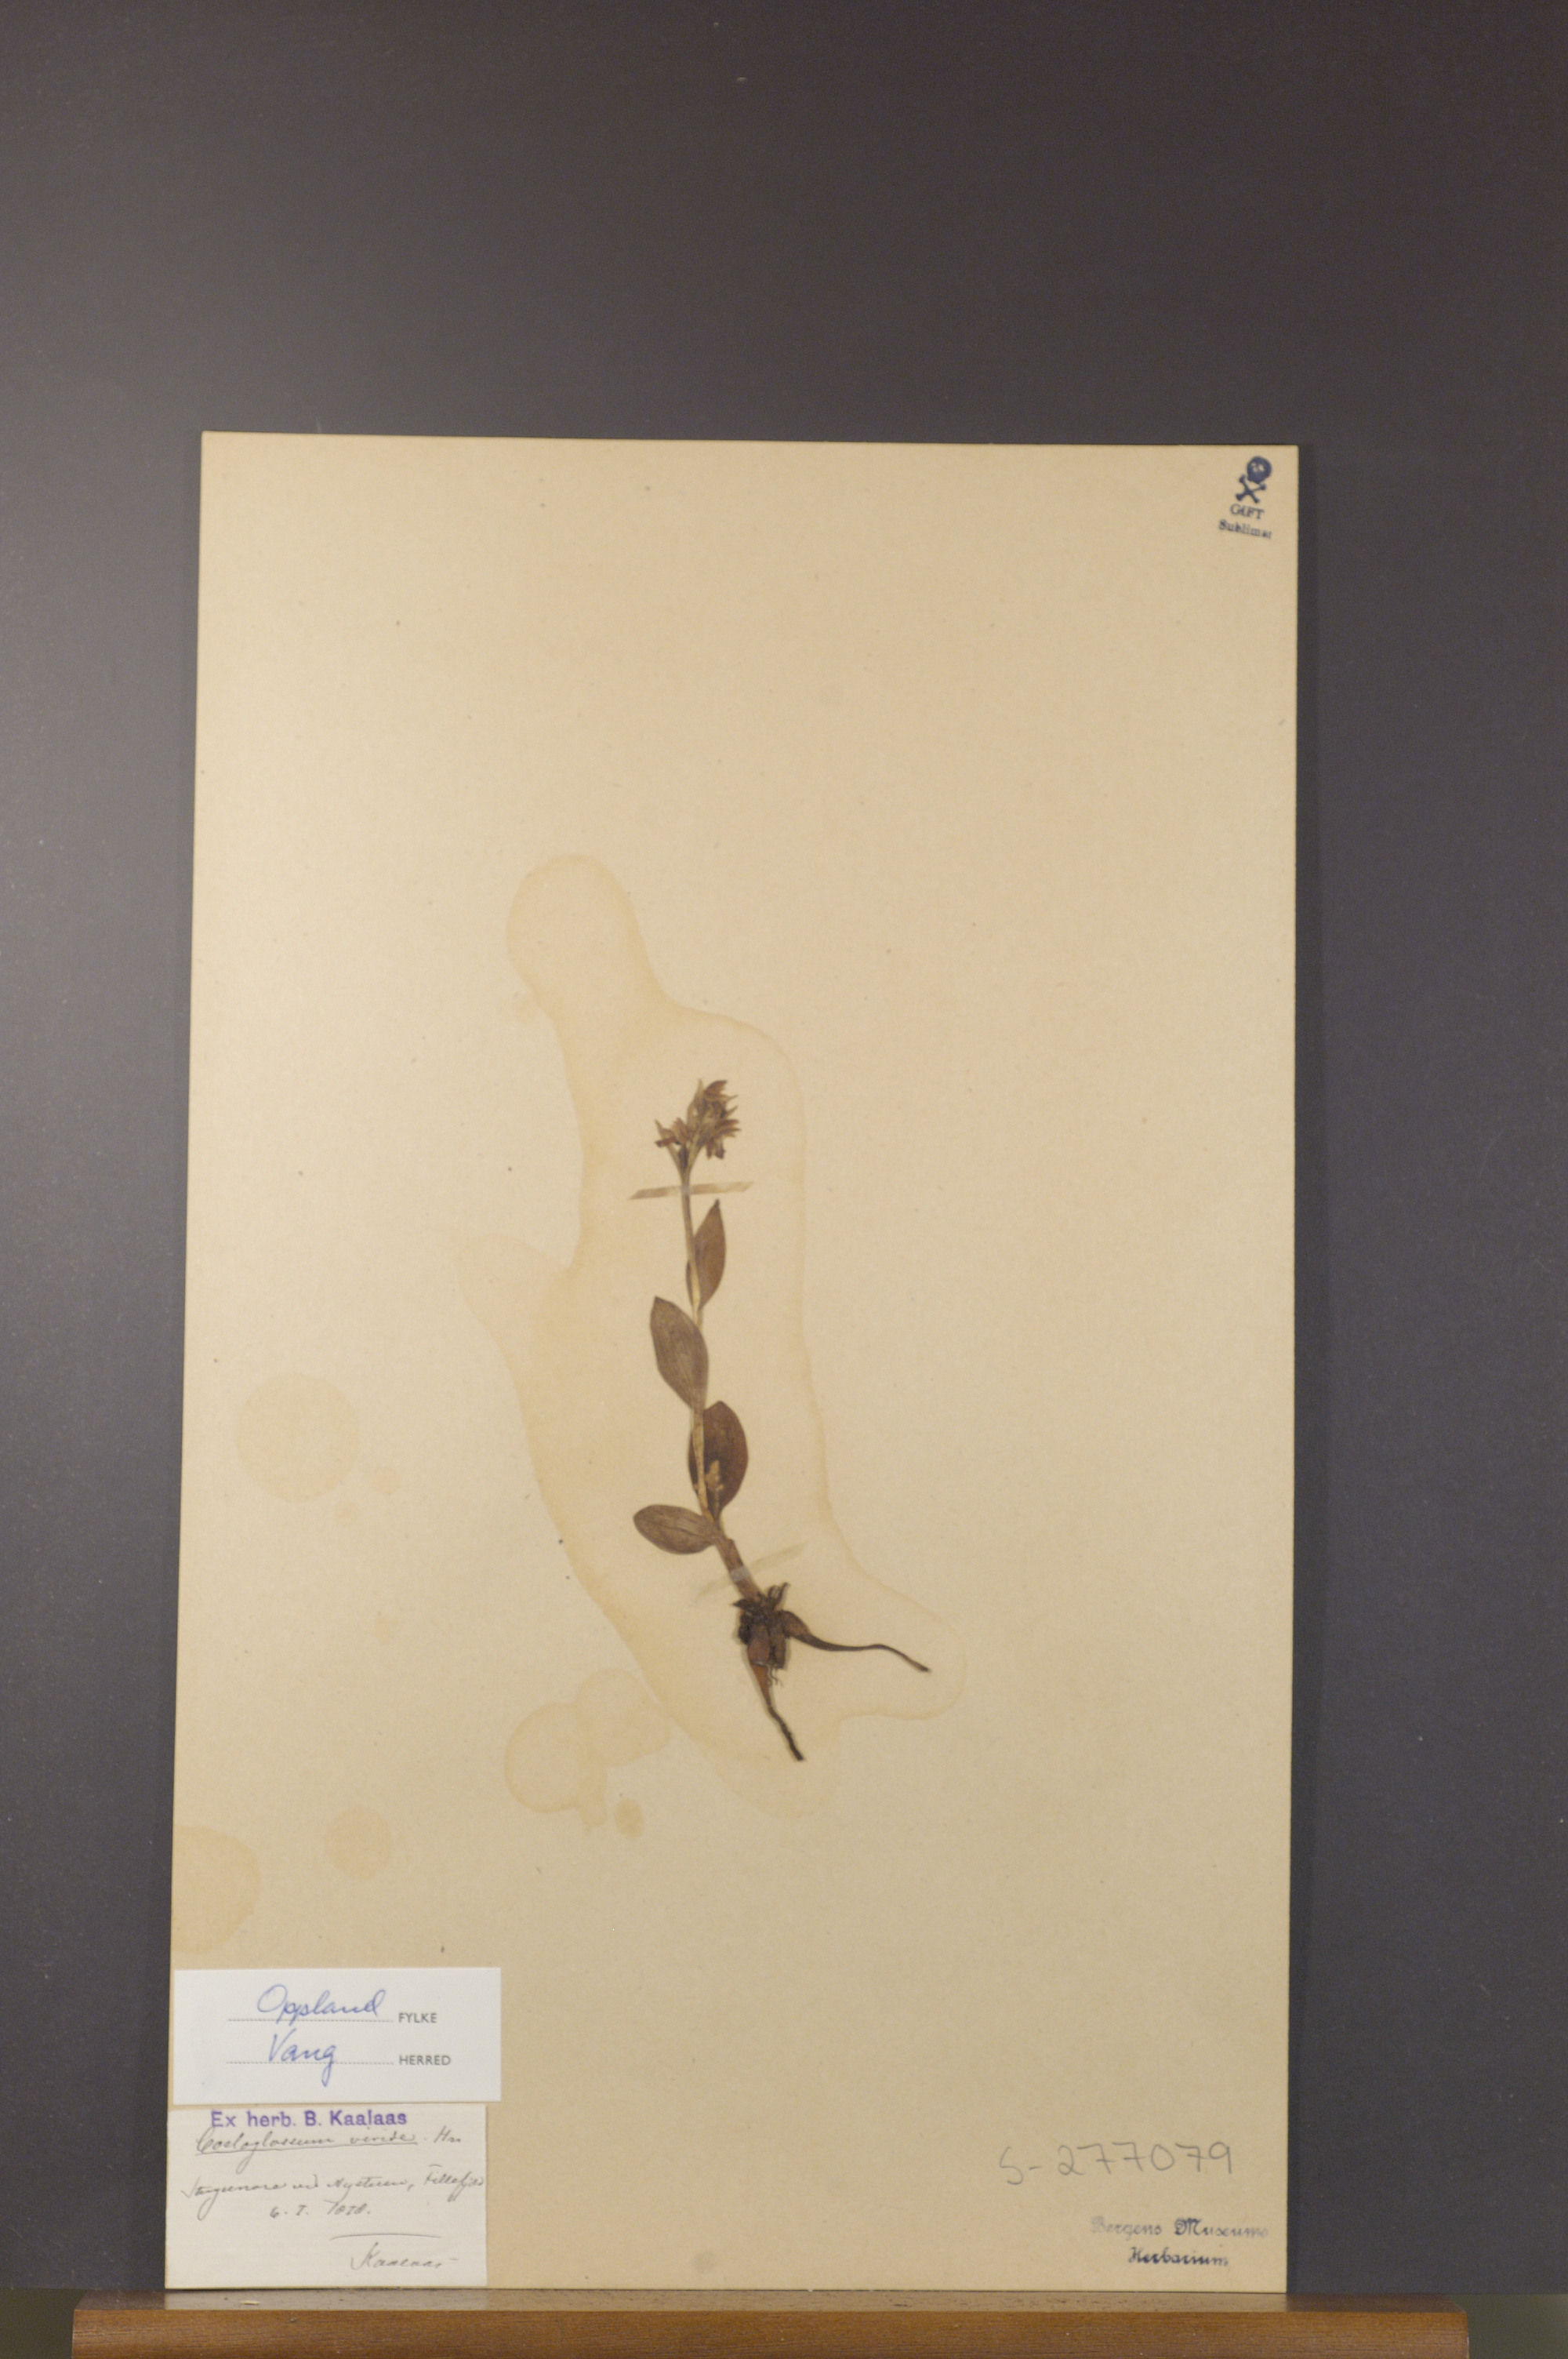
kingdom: Plantae
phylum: Tracheophyta
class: Liliopsida
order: Asparagales
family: Orchidaceae
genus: Dactylorhiza
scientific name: Dactylorhiza viridis
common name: Longbract frog orchid
